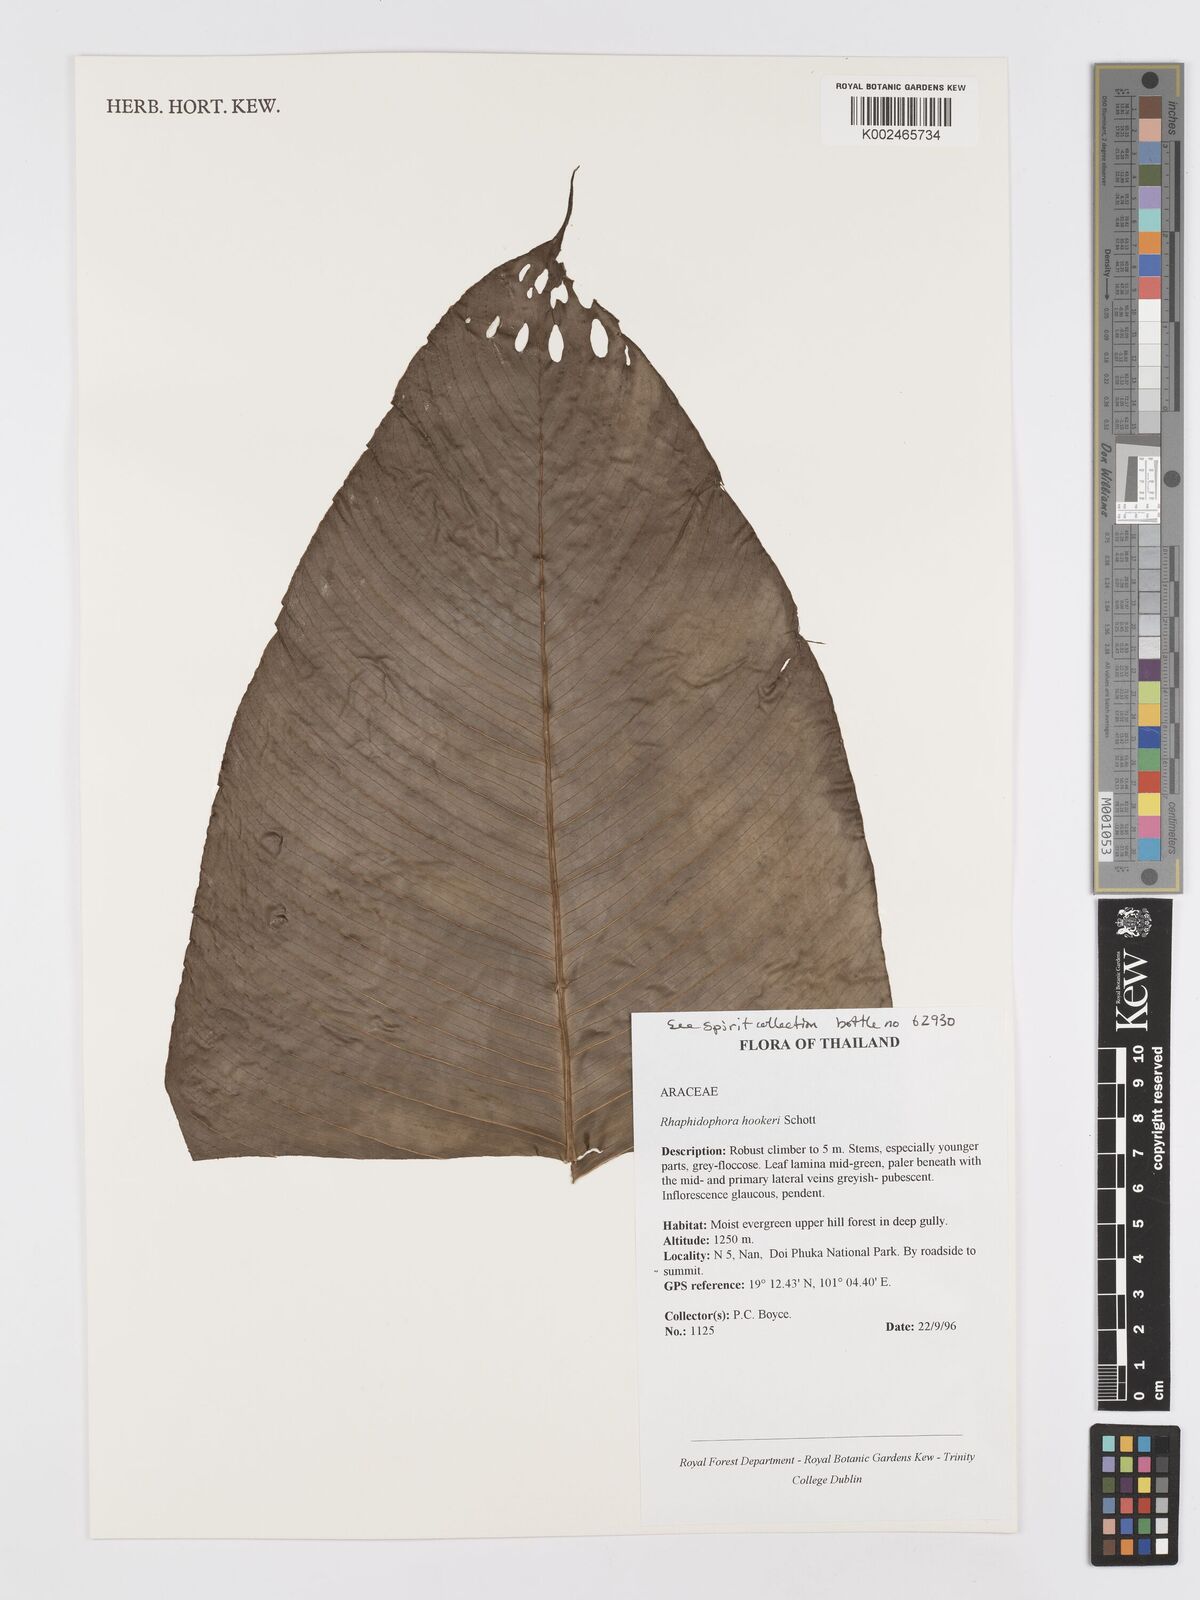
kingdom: Plantae
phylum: Tracheophyta
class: Liliopsida
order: Alismatales
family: Araceae
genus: Rhaphidophora
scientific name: Rhaphidophora hookeri
